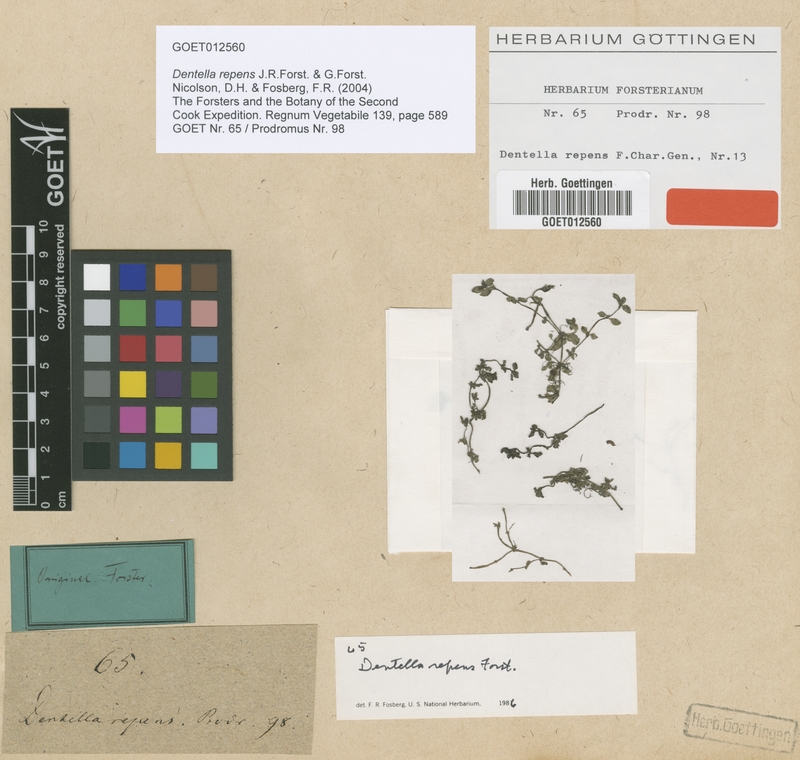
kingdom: Plantae
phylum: Tracheophyta
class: Magnoliopsida
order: Gentianales
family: Rubiaceae
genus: Dentella
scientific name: Dentella repens
